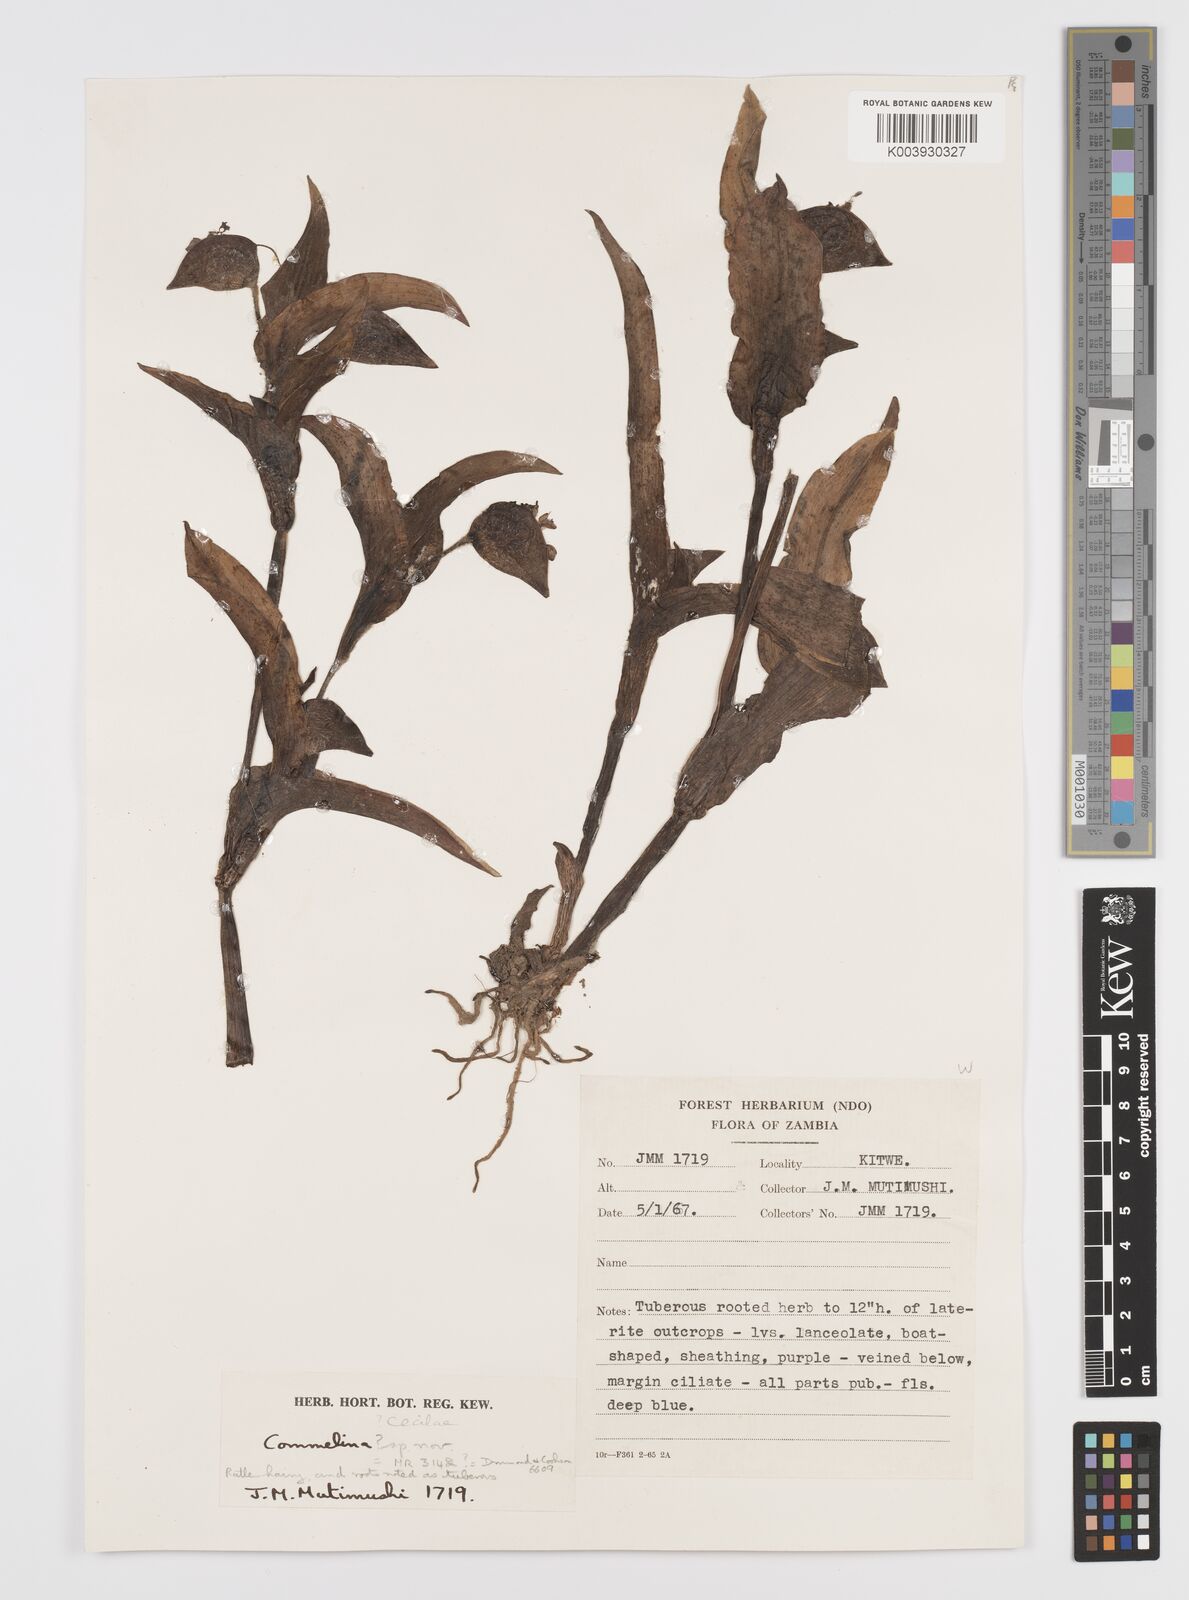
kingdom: Plantae
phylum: Tracheophyta
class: Liliopsida
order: Commelinales
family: Commelinaceae
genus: Commelina
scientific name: Commelina cecilae
